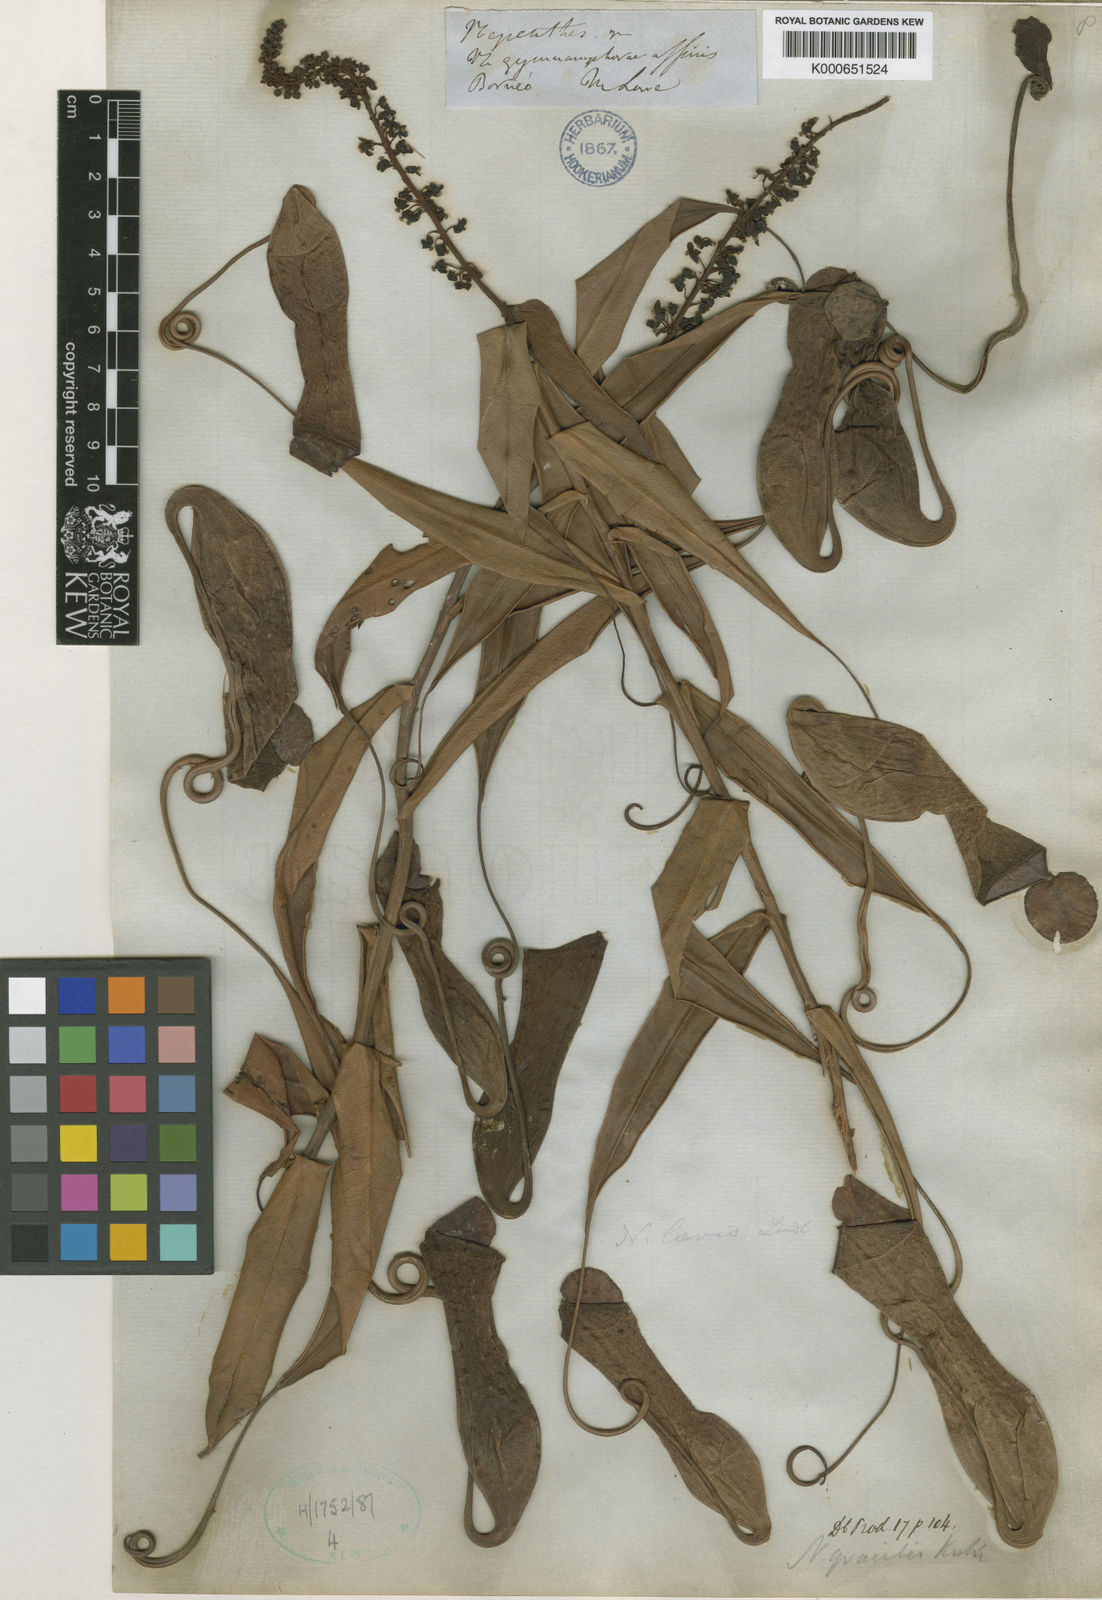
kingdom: Plantae
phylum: Tracheophyta
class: Magnoliopsida
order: Caryophyllales
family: Nepenthaceae
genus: Nepenthes
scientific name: Nepenthes gracilis
